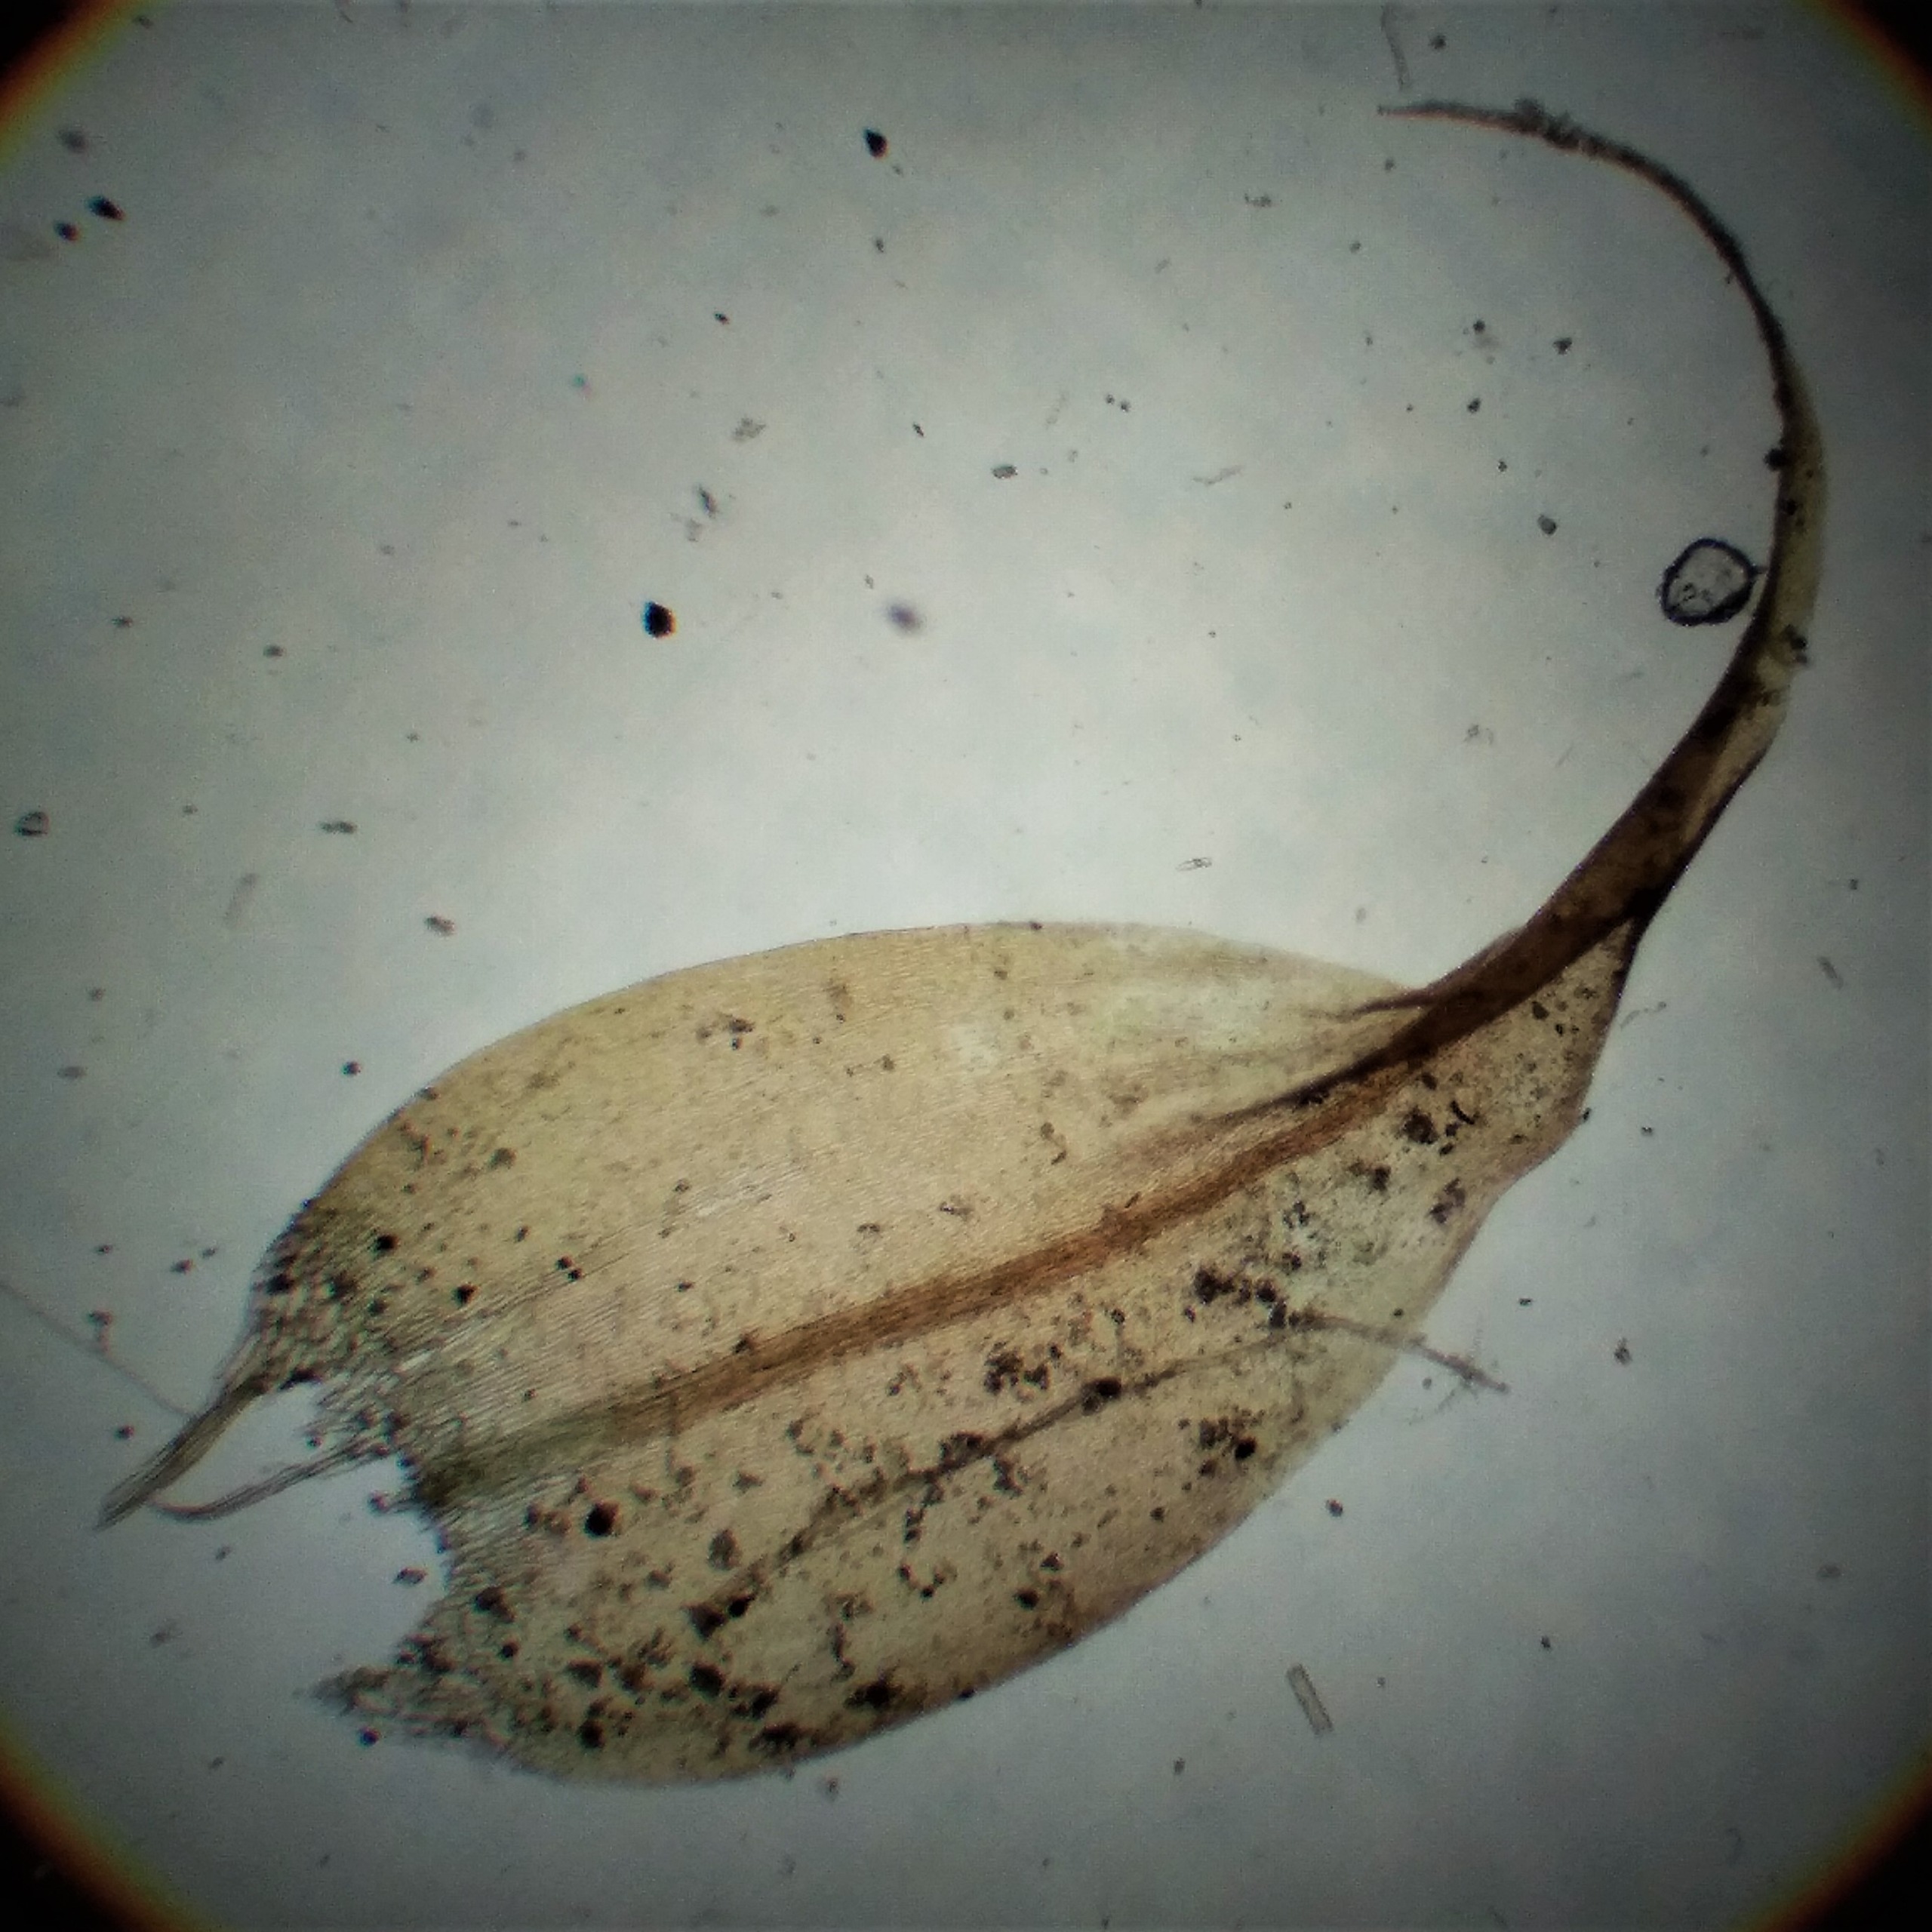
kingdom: Plantae
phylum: Bryophyta
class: Bryopsida
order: Hypnales
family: Amblystegiaceae
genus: Drepanocladus
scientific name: Drepanocladus aduncus
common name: Kær-seglmos
